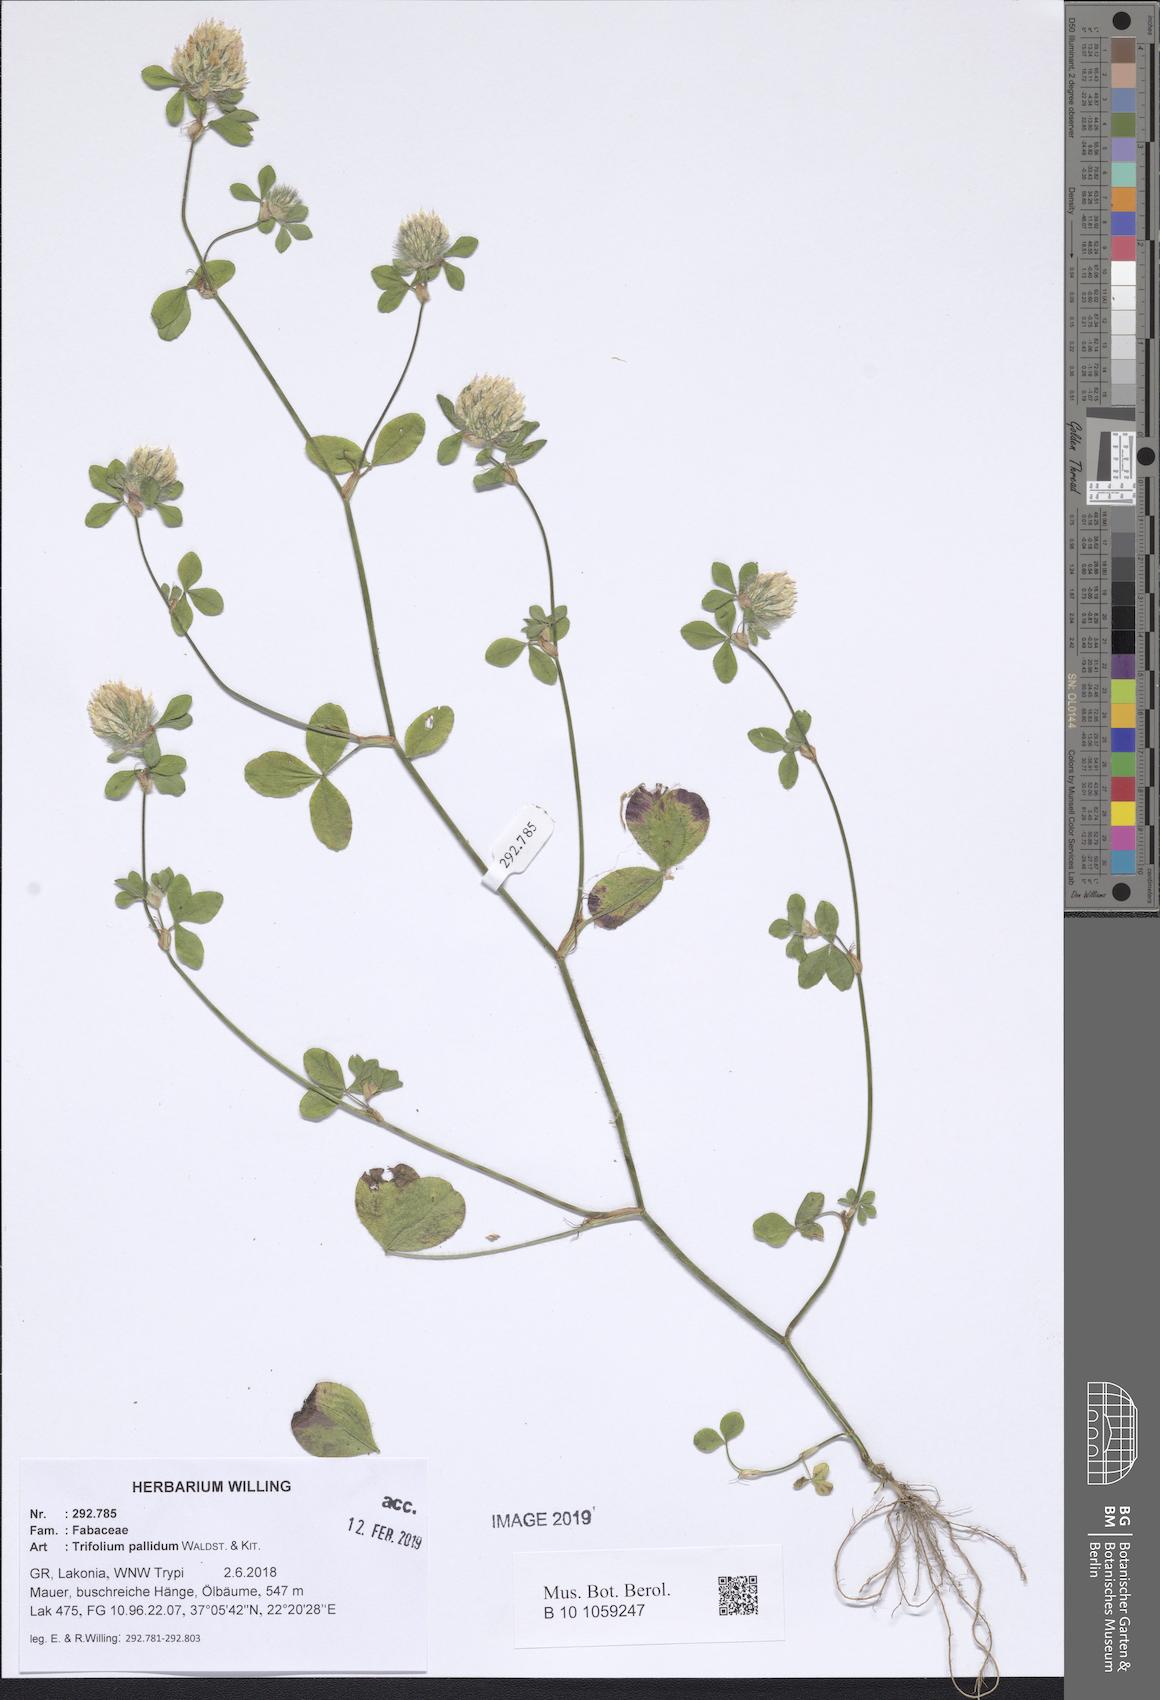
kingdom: Plantae
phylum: Tracheophyta
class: Magnoliopsida
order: Fabales
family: Fabaceae
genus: Trifolium
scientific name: Trifolium pallidum
